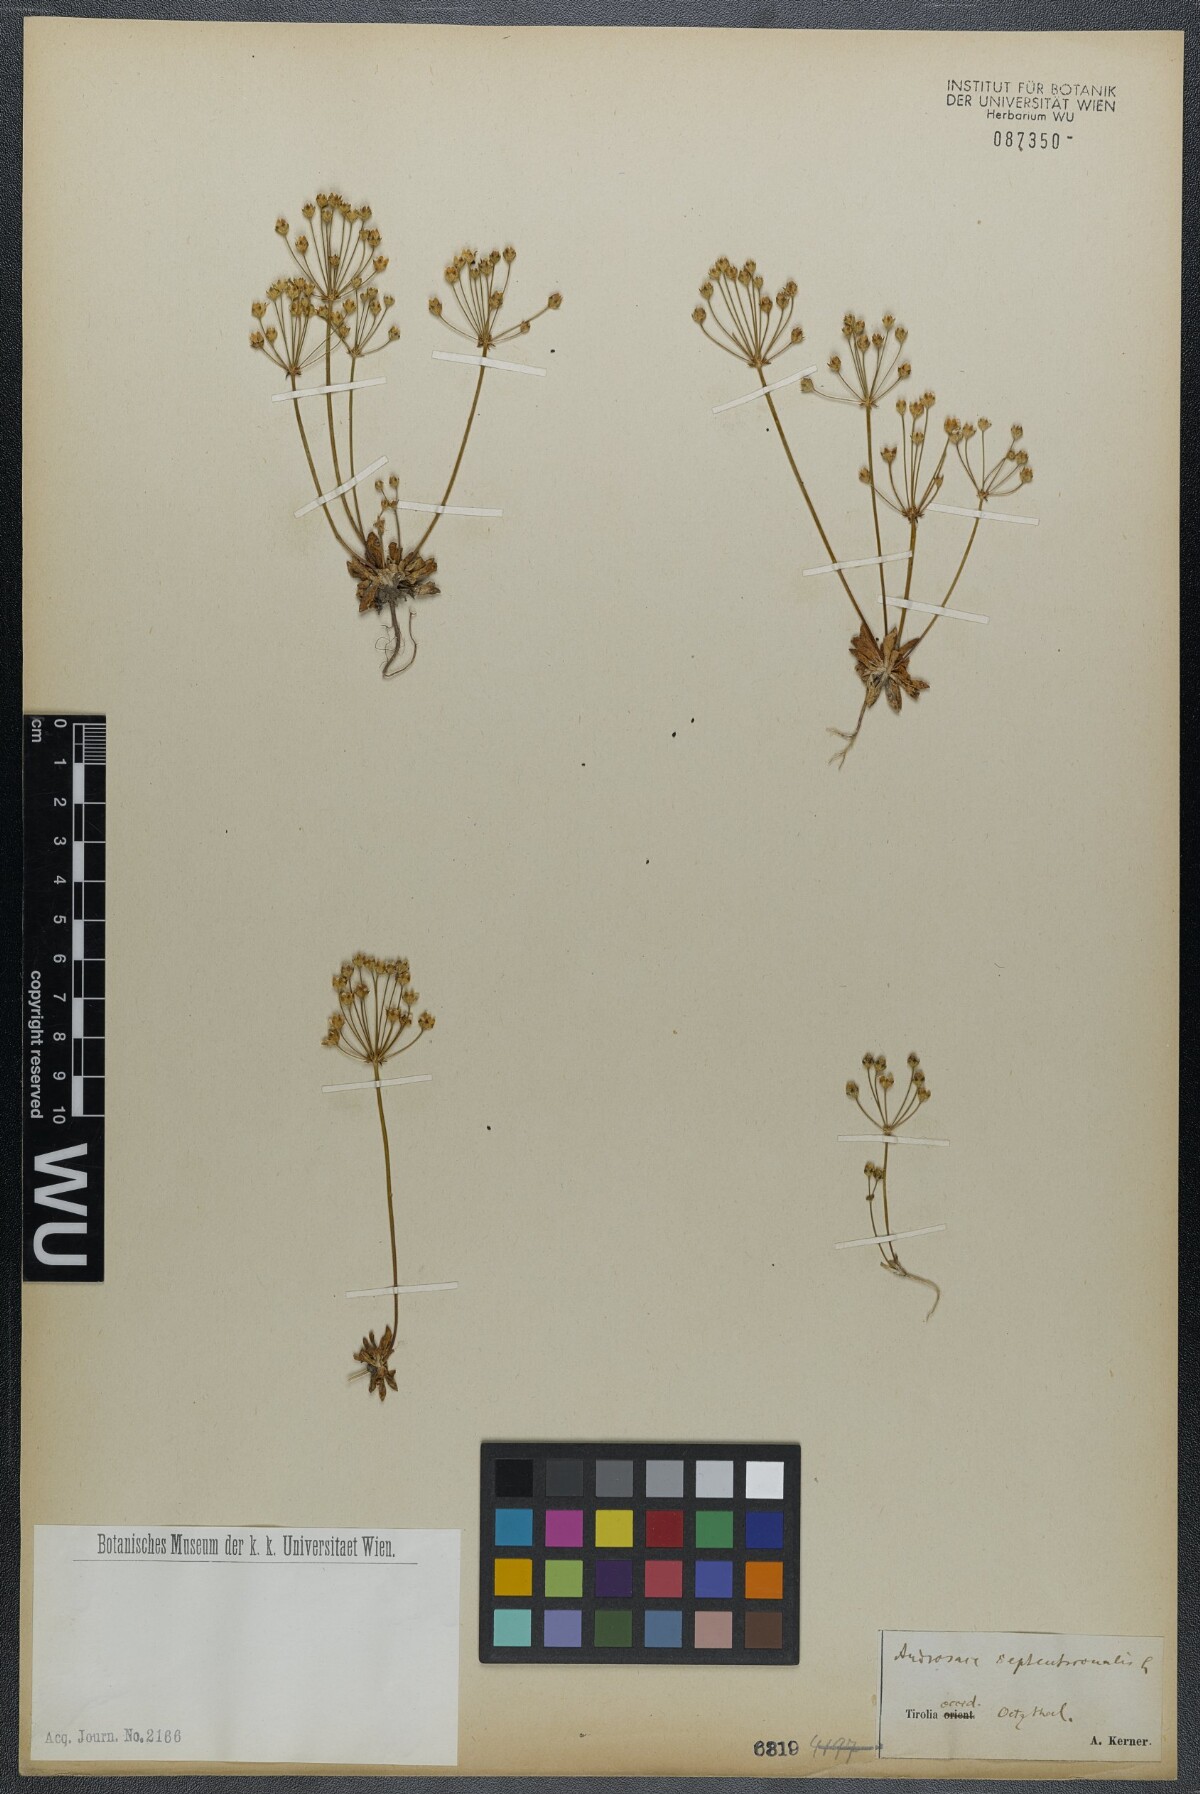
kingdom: Plantae
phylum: Tracheophyta
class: Magnoliopsida
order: Ericales
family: Primulaceae
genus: Androsace
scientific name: Androsace septentrionalis
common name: Hairy northern fairy-candelabra
